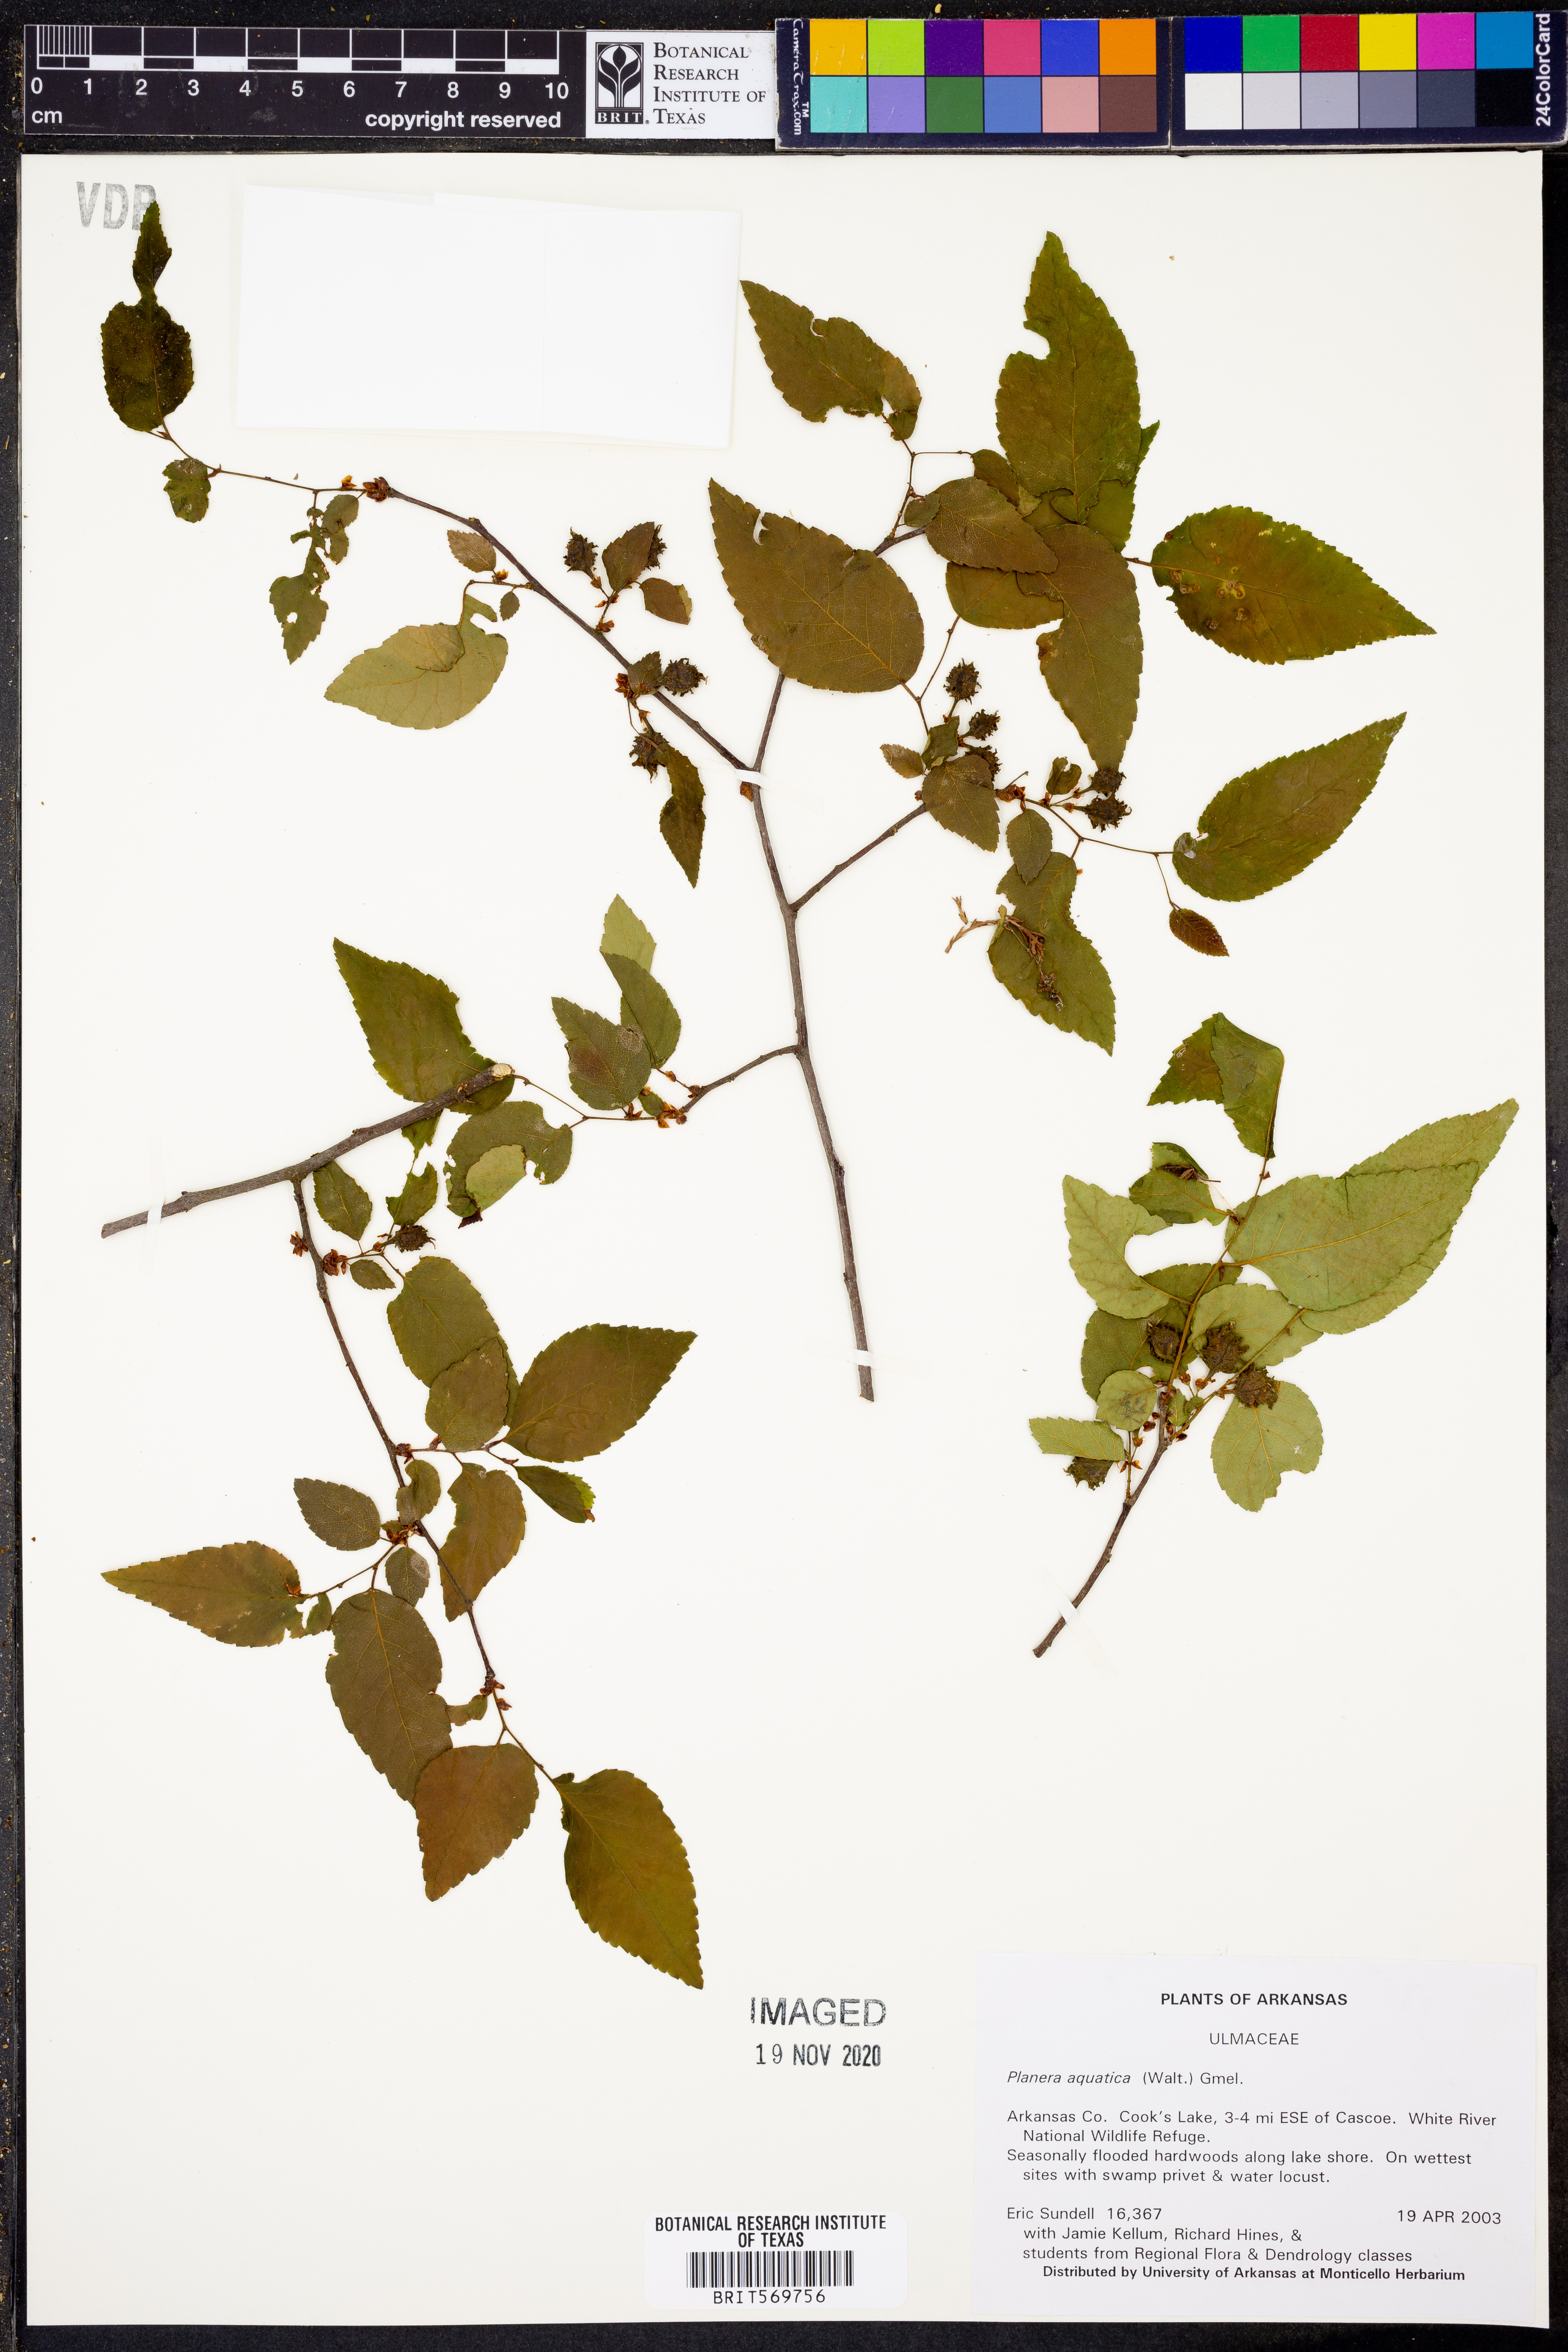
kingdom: Plantae
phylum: Tracheophyta
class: Magnoliopsida
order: Rosales
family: Ulmaceae
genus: Planera
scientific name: Planera aquatica
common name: Water-elm
